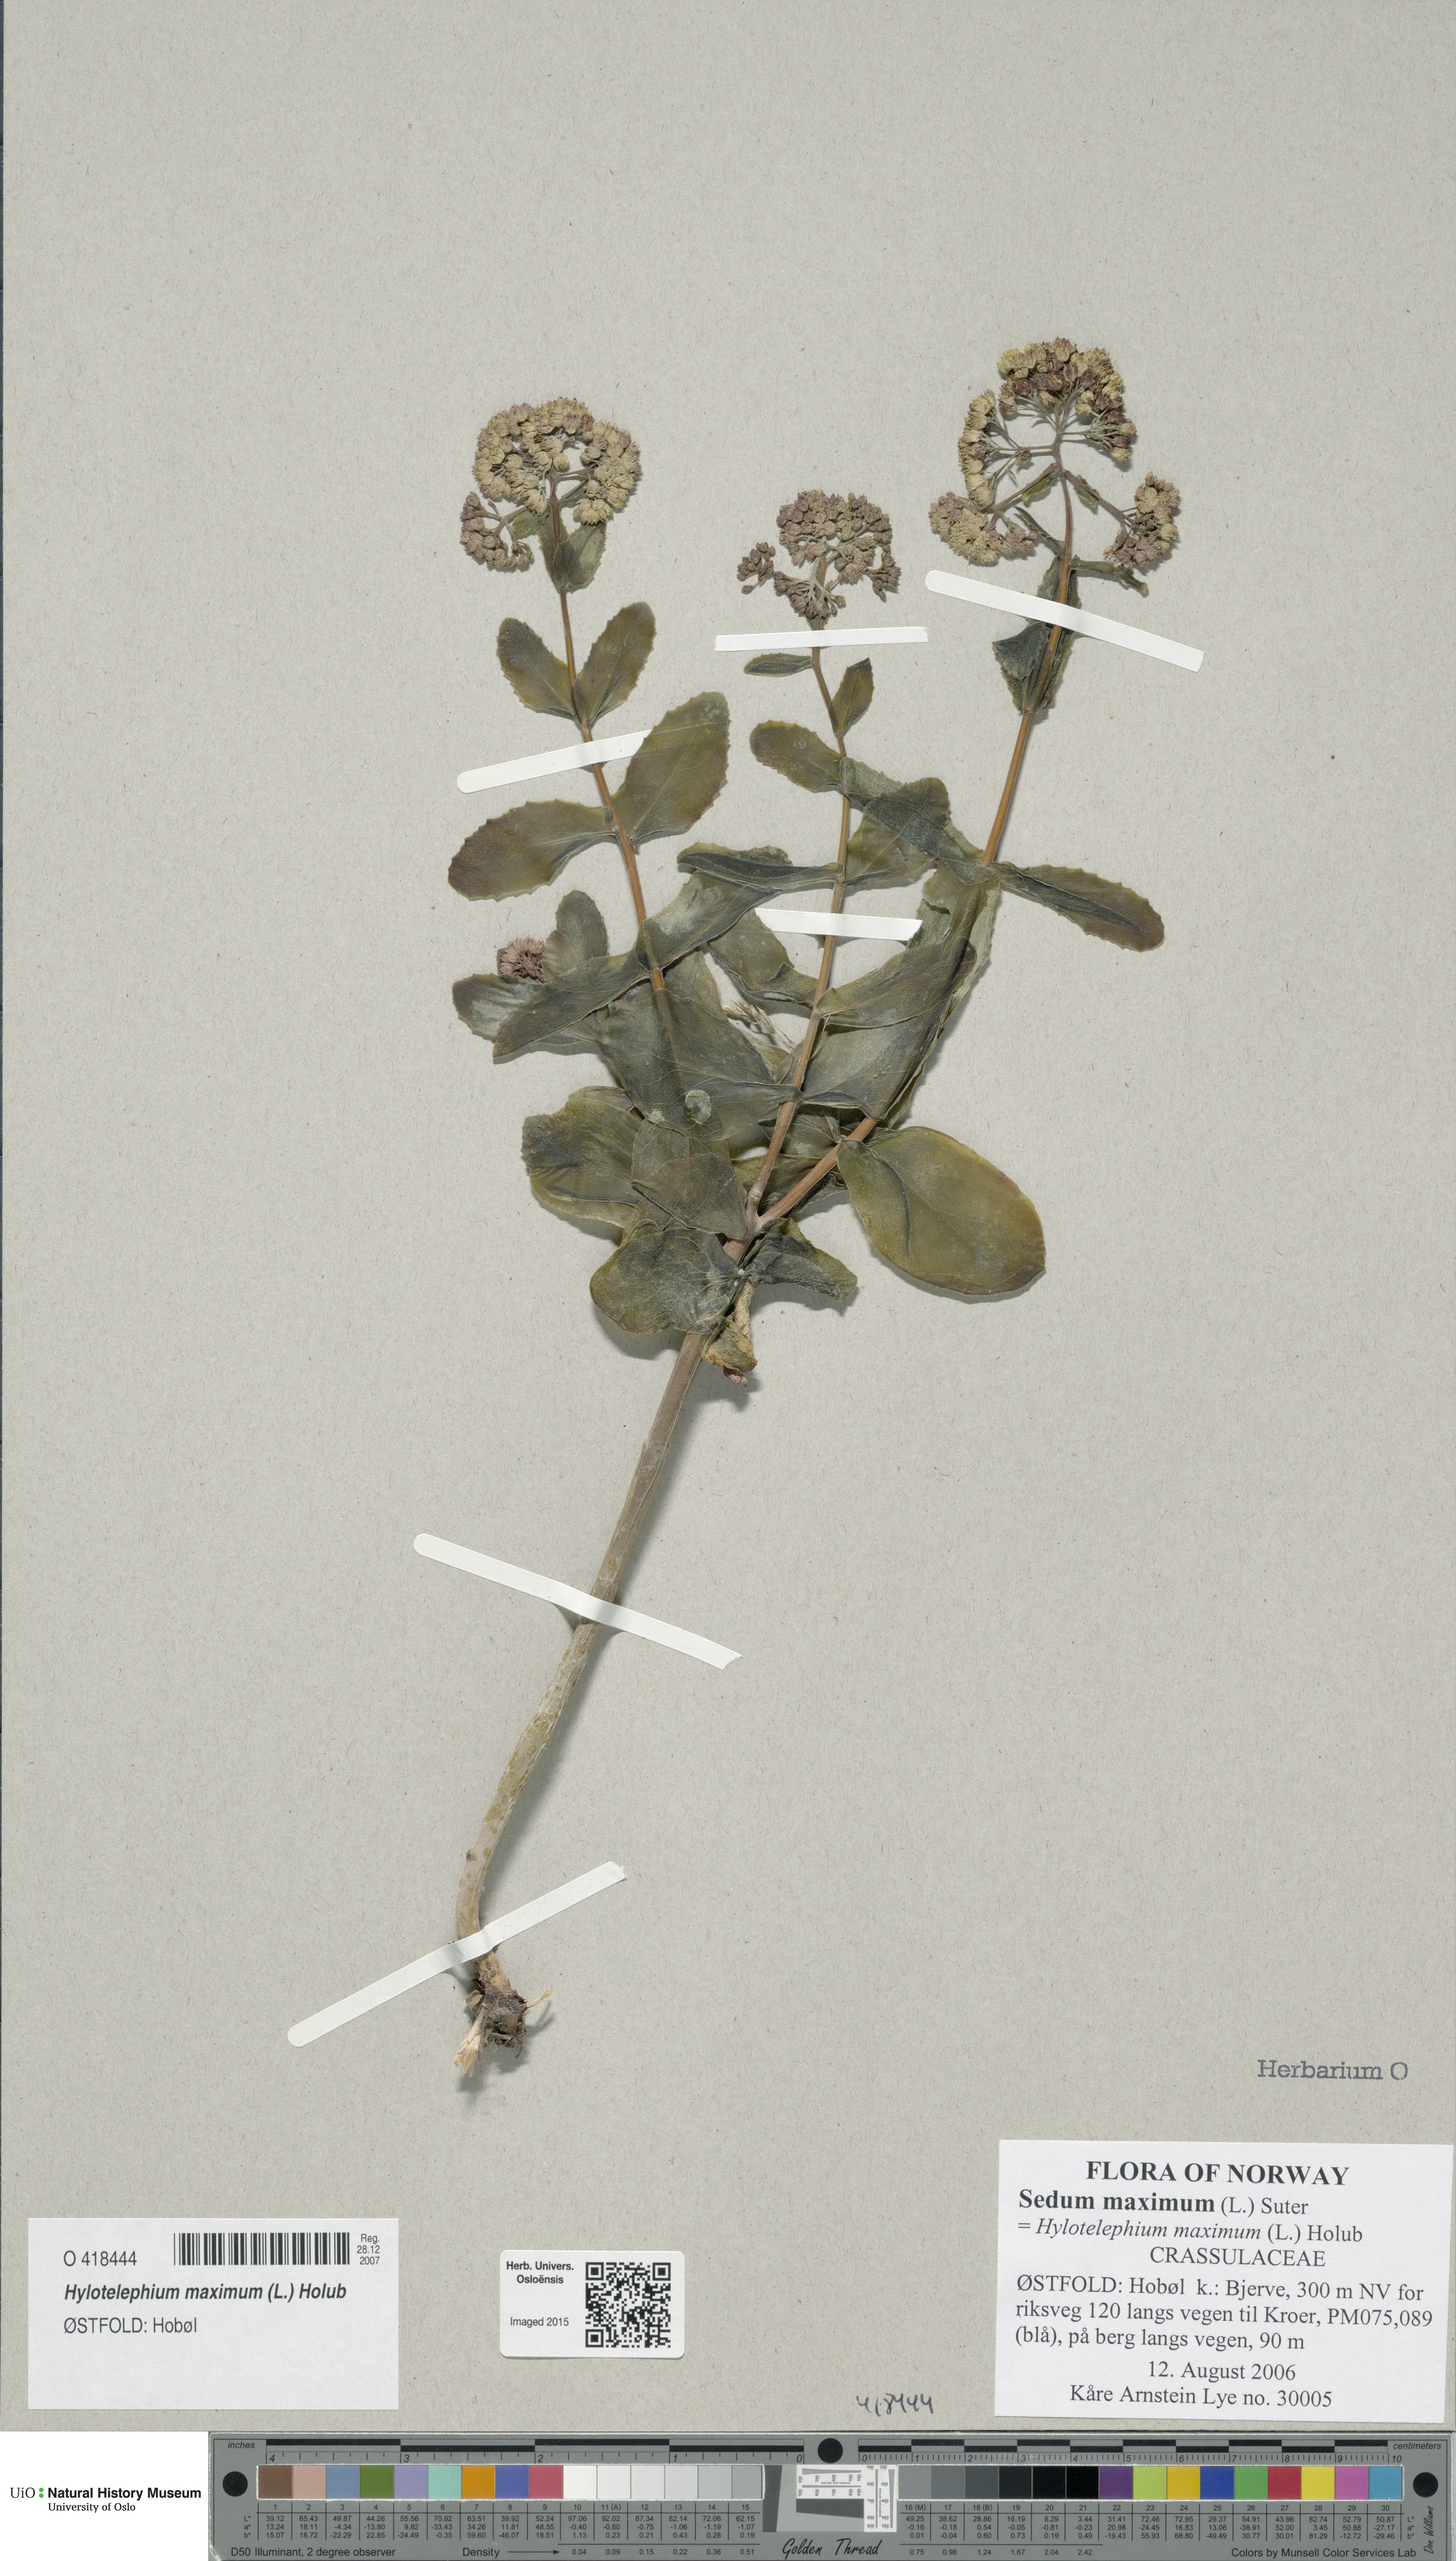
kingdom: Plantae
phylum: Tracheophyta
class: Magnoliopsida
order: Saxifragales
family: Crassulaceae
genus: Hylotelephium
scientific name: Hylotelephium maximum
